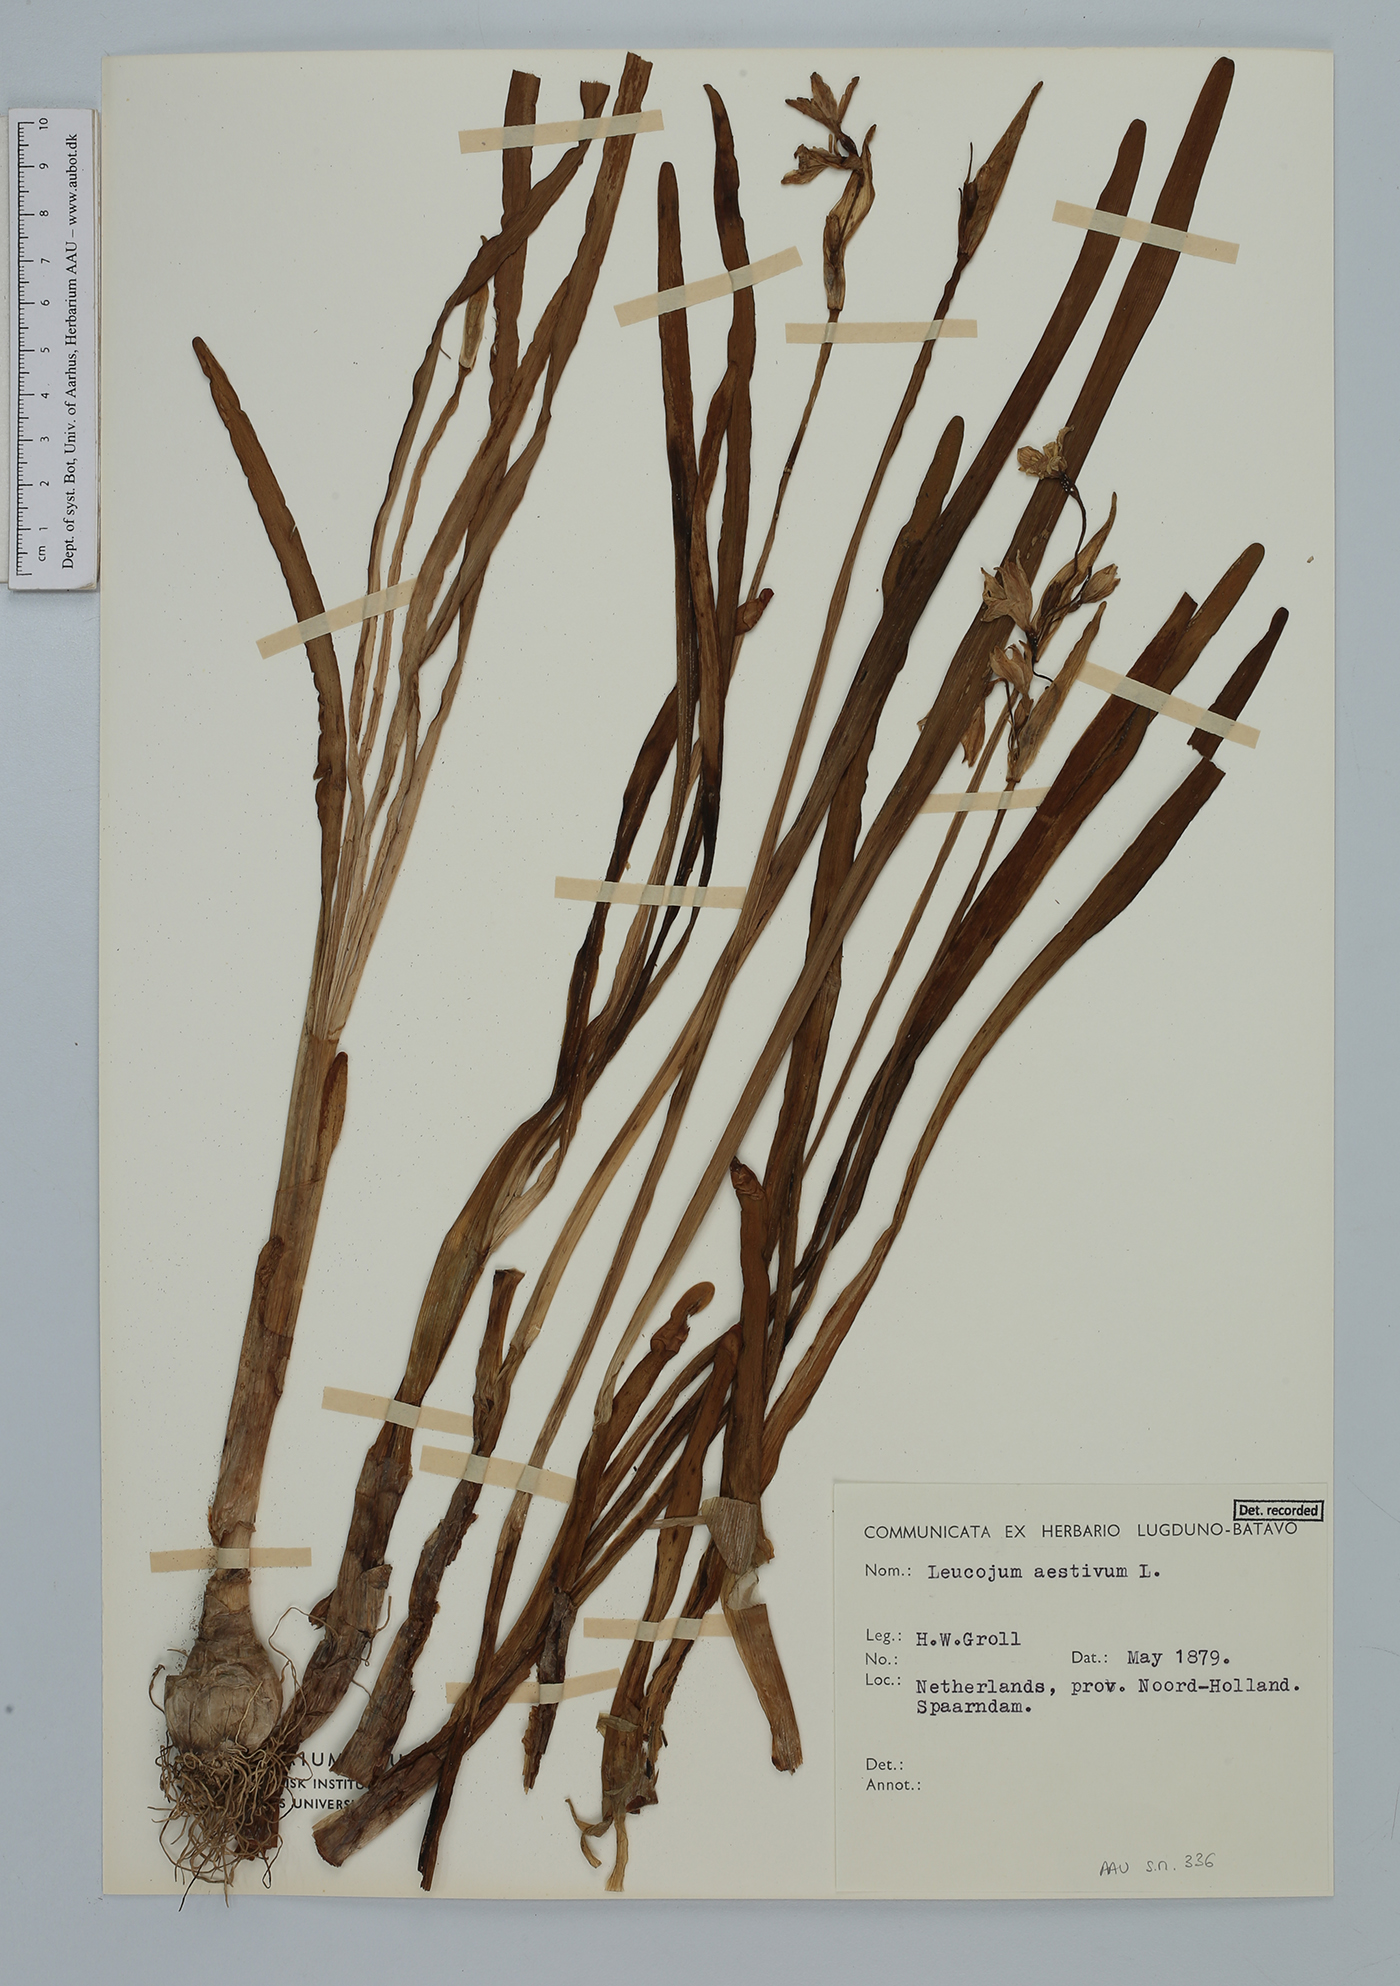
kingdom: Plantae
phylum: Tracheophyta
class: Liliopsida
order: Asparagales
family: Amaryllidaceae
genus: Leucojum
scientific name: Leucojum aestivum
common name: Summer snowflake
